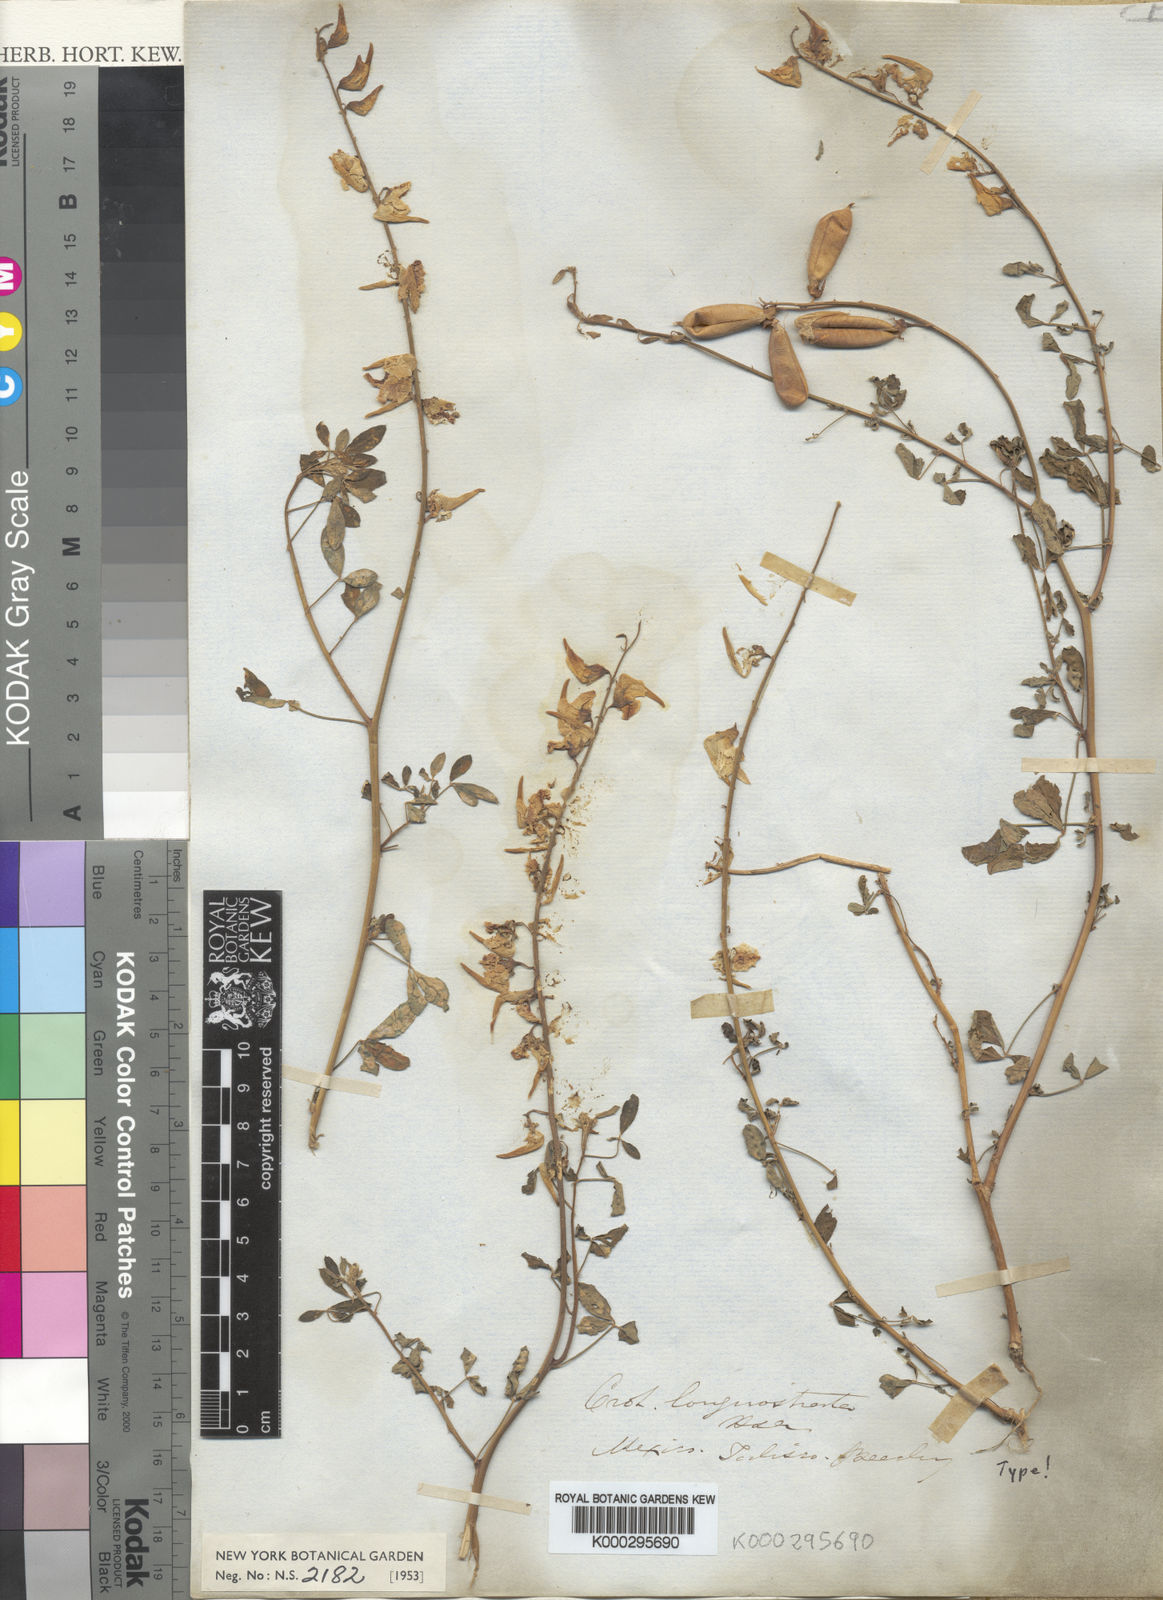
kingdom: Plantae
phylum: Tracheophyta
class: Magnoliopsida
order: Fabales
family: Fabaceae
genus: Crotalaria
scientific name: Crotalaria
